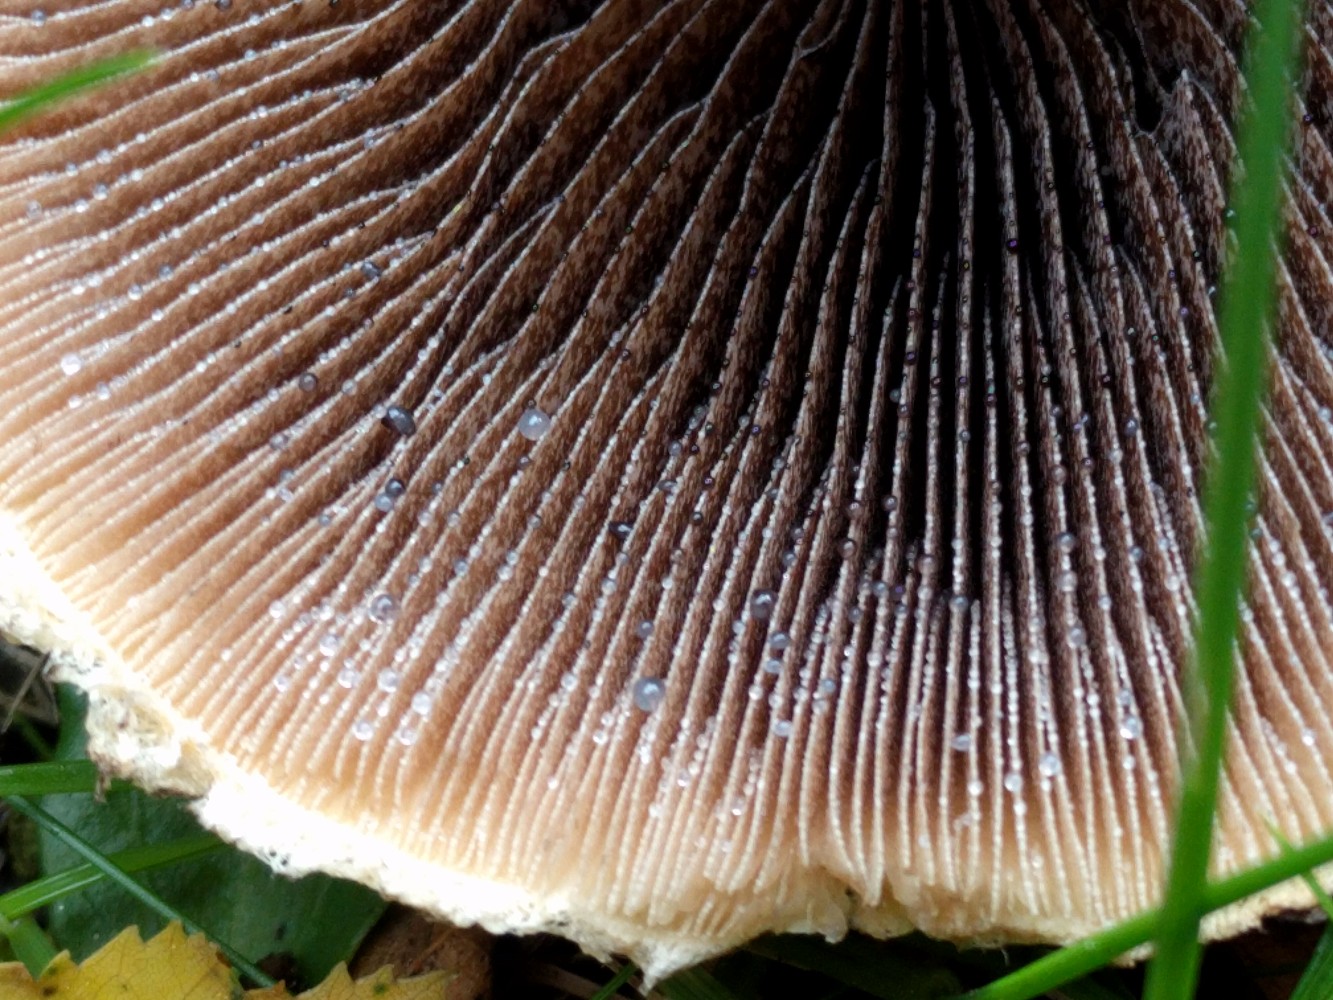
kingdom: Fungi
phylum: Basidiomycota
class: Agaricomycetes
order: Agaricales
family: Psathyrellaceae
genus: Lacrymaria
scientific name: Lacrymaria lacrymabunda
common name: grædende mørkhat
